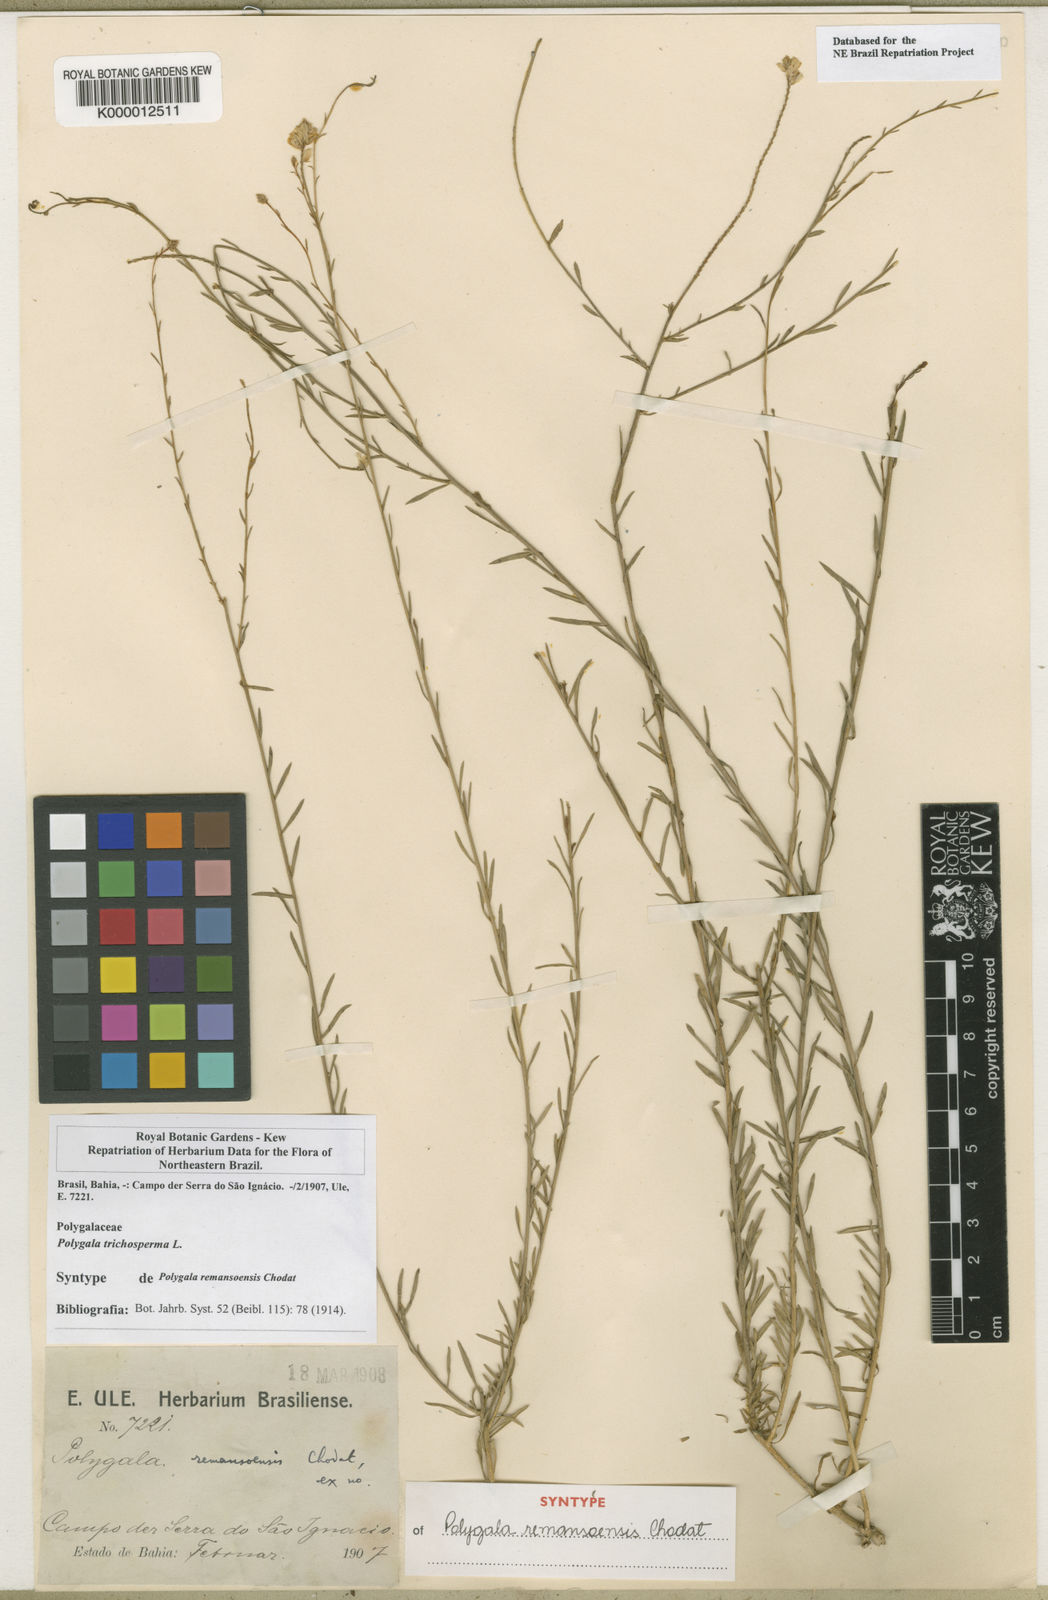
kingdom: Plantae
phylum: Tracheophyta
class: Magnoliopsida
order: Fabales
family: Polygalaceae
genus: Polygala
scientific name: Polygala
